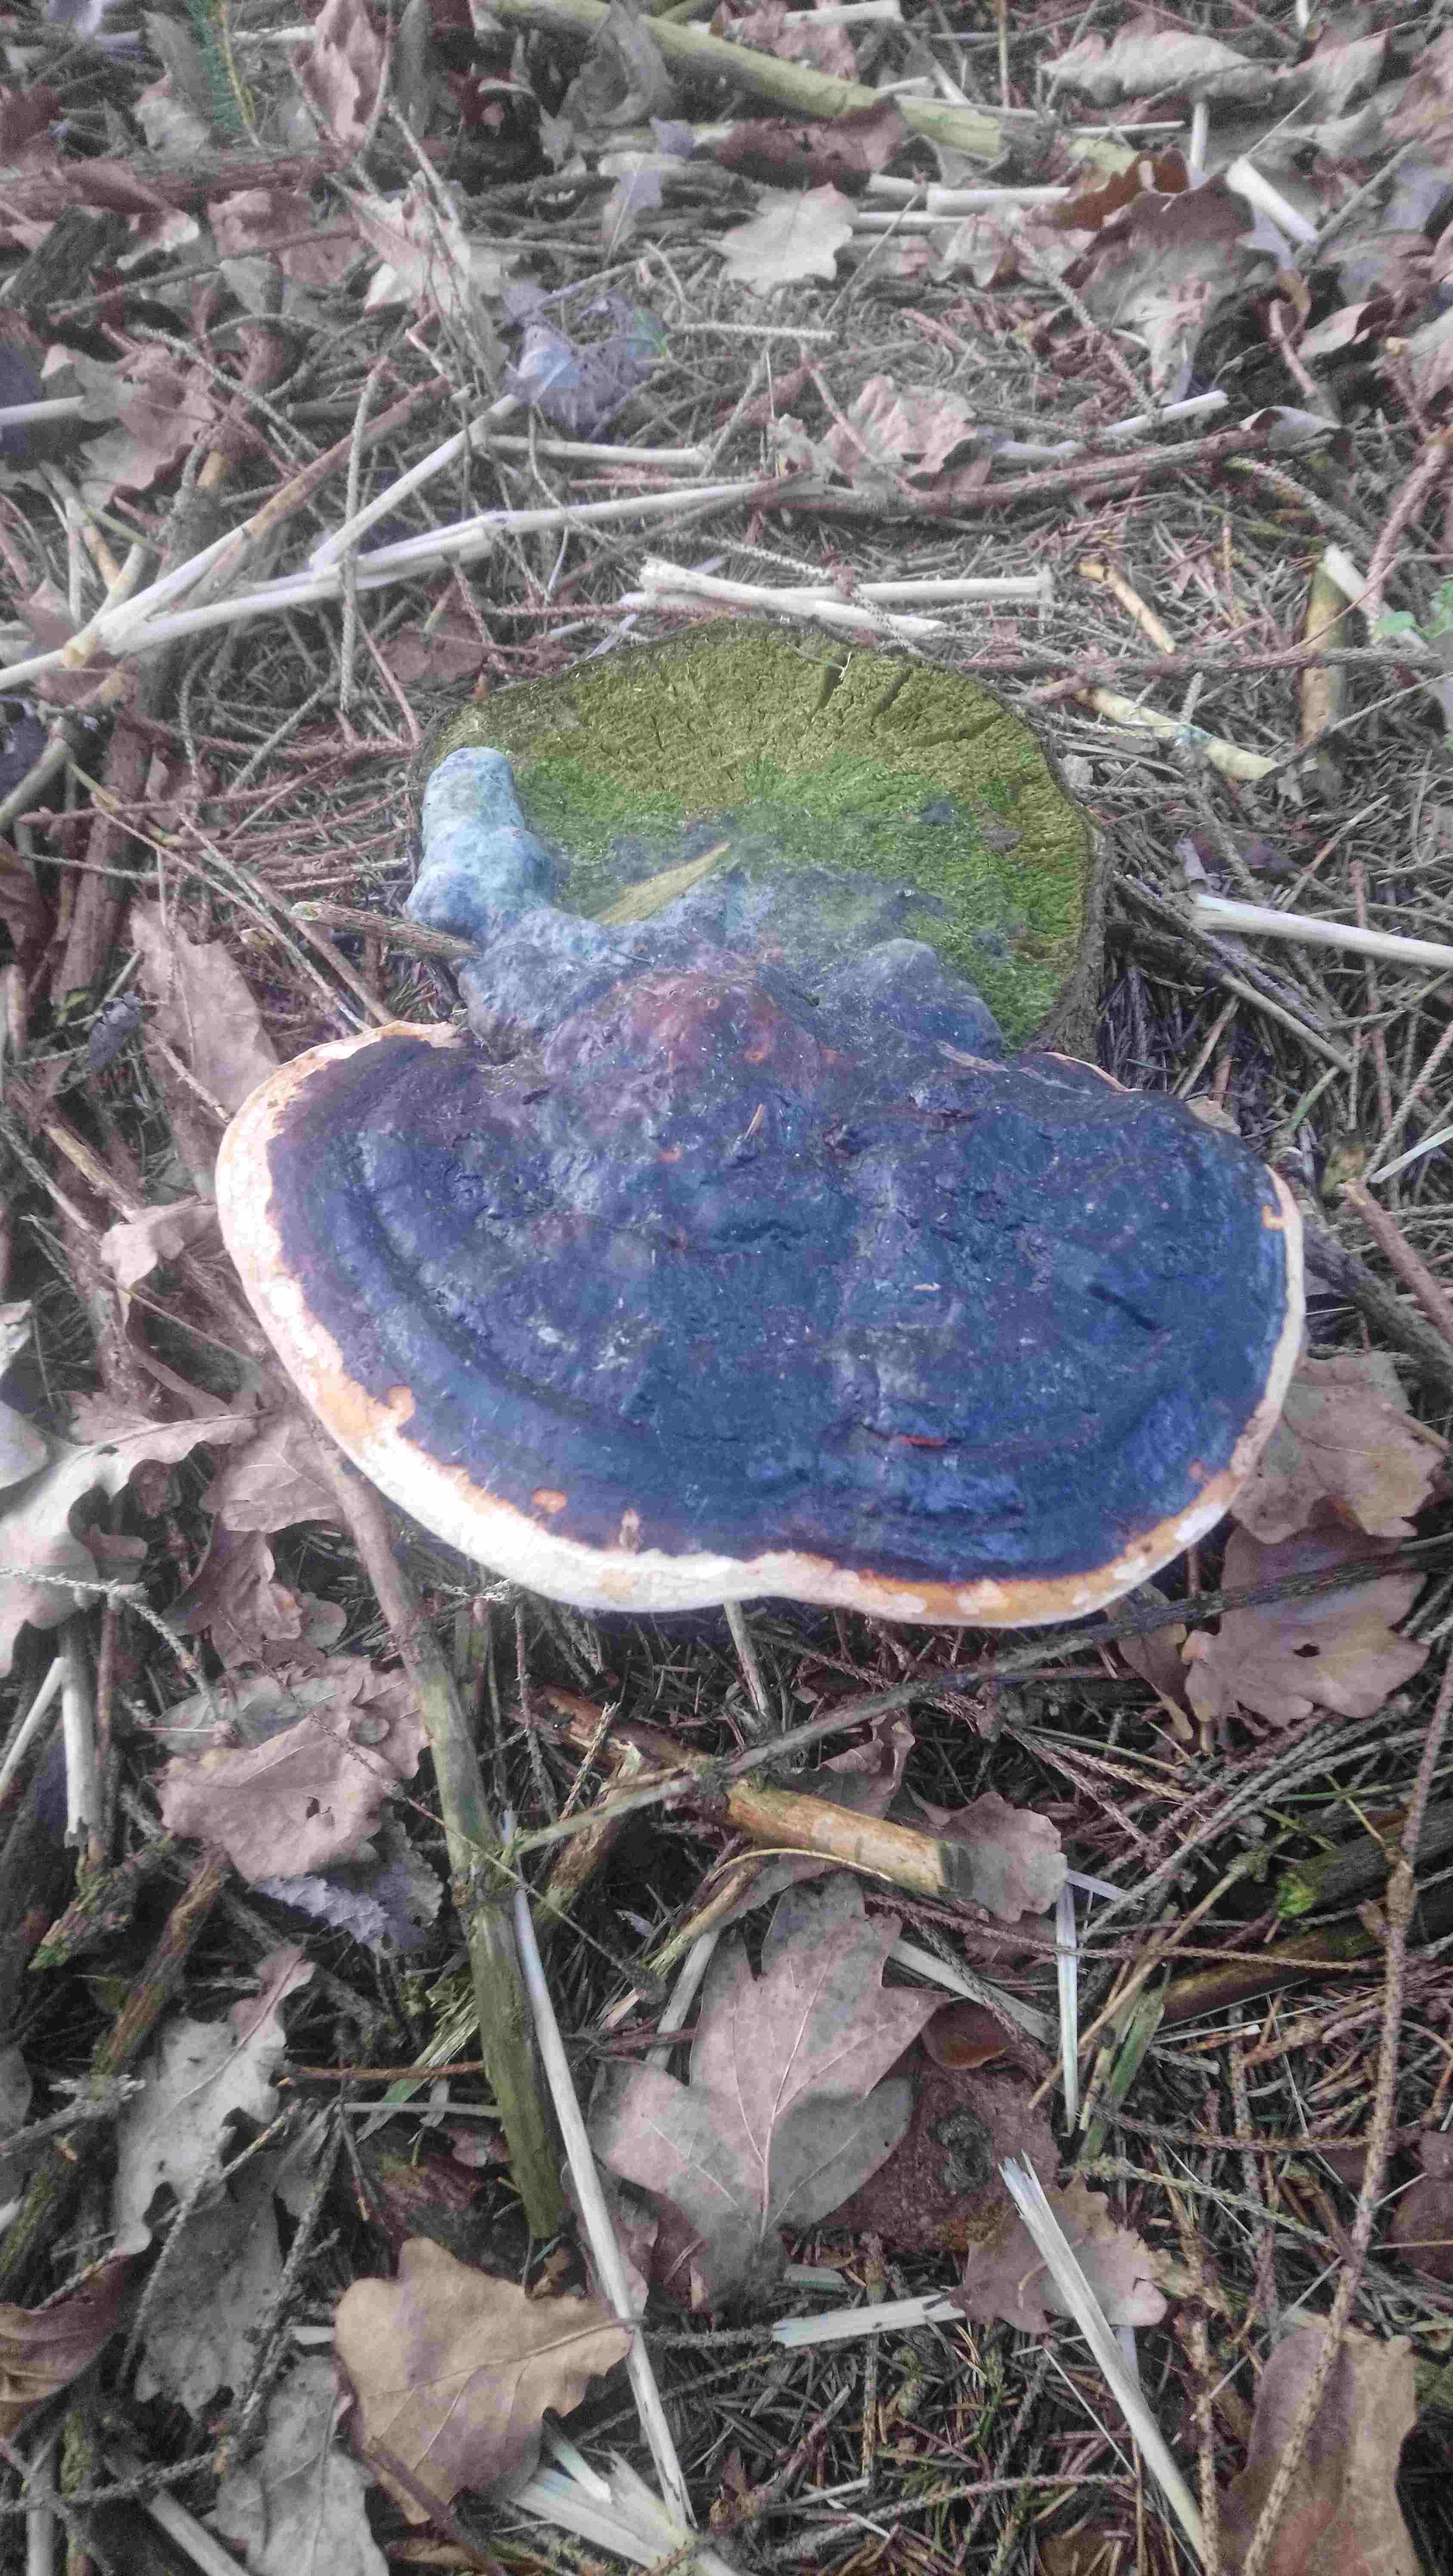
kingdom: Fungi
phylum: Basidiomycota
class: Agaricomycetes
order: Polyporales
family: Fomitopsidaceae
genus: Fomitopsis
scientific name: Fomitopsis pinicola
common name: randbæltet hovporesvamp
